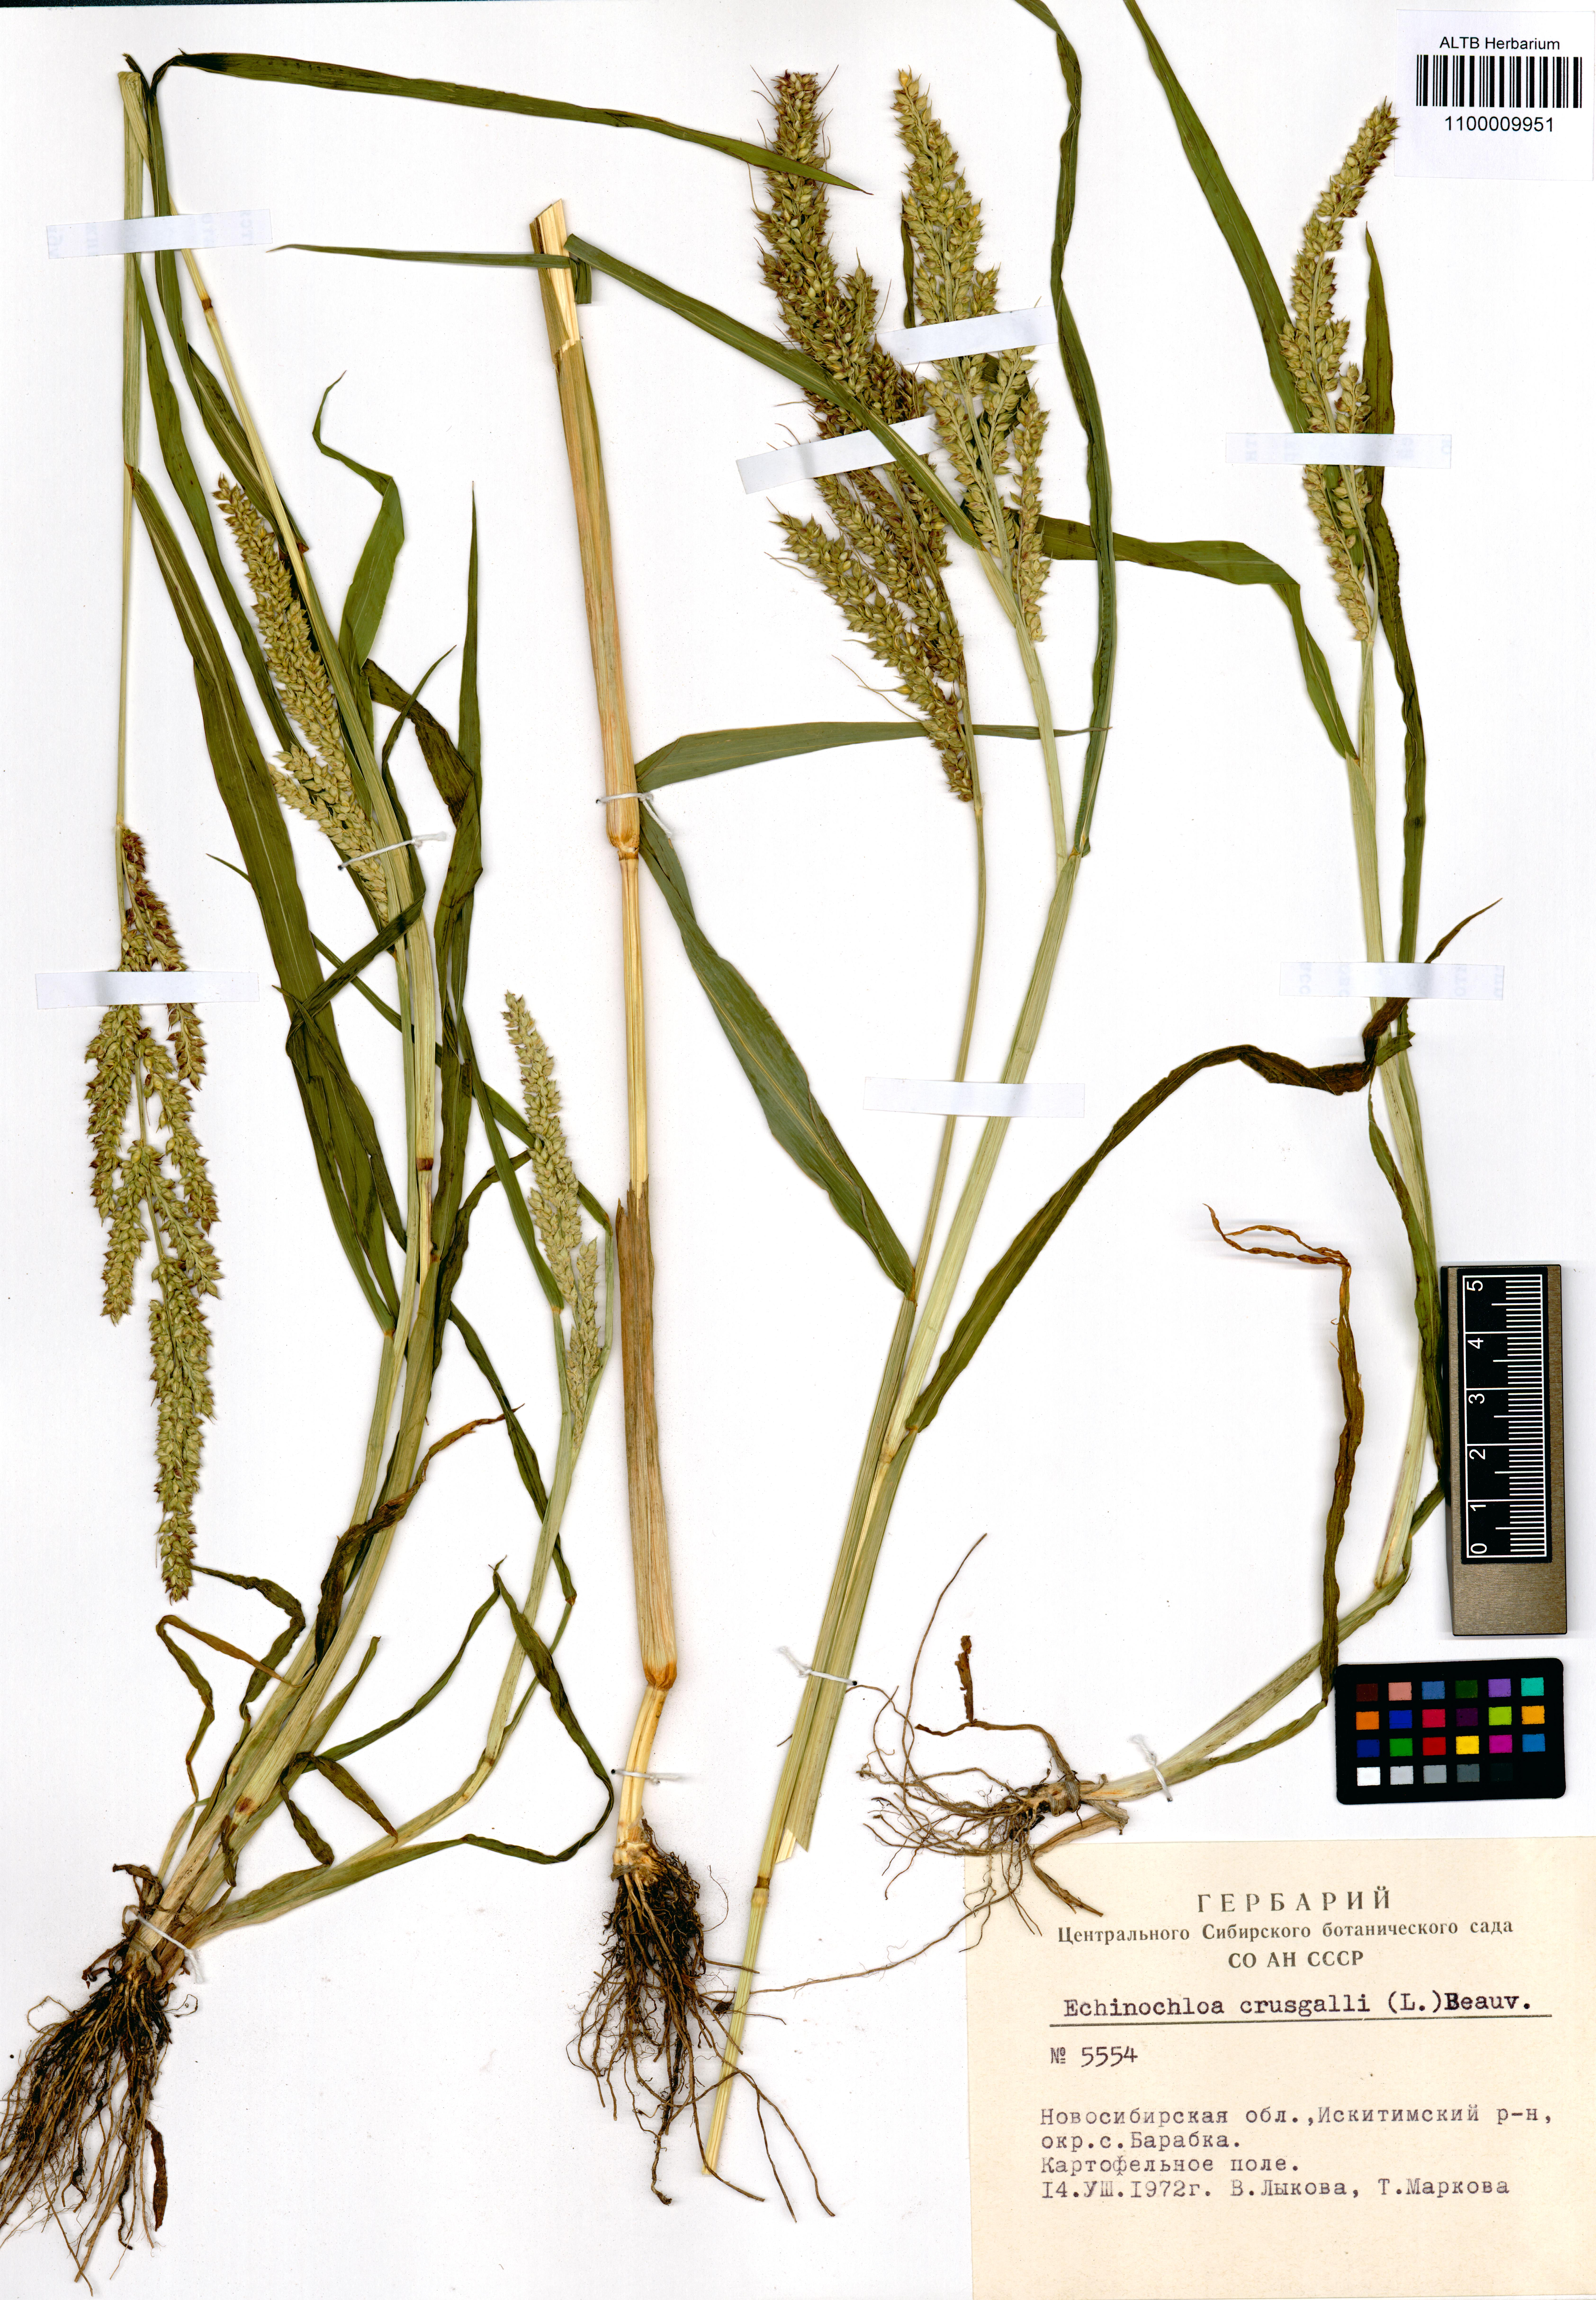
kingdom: Plantae
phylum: Tracheophyta
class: Liliopsida
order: Poales
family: Poaceae
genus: Echinochloa
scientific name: Echinochloa crus-galli
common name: Cockspur
